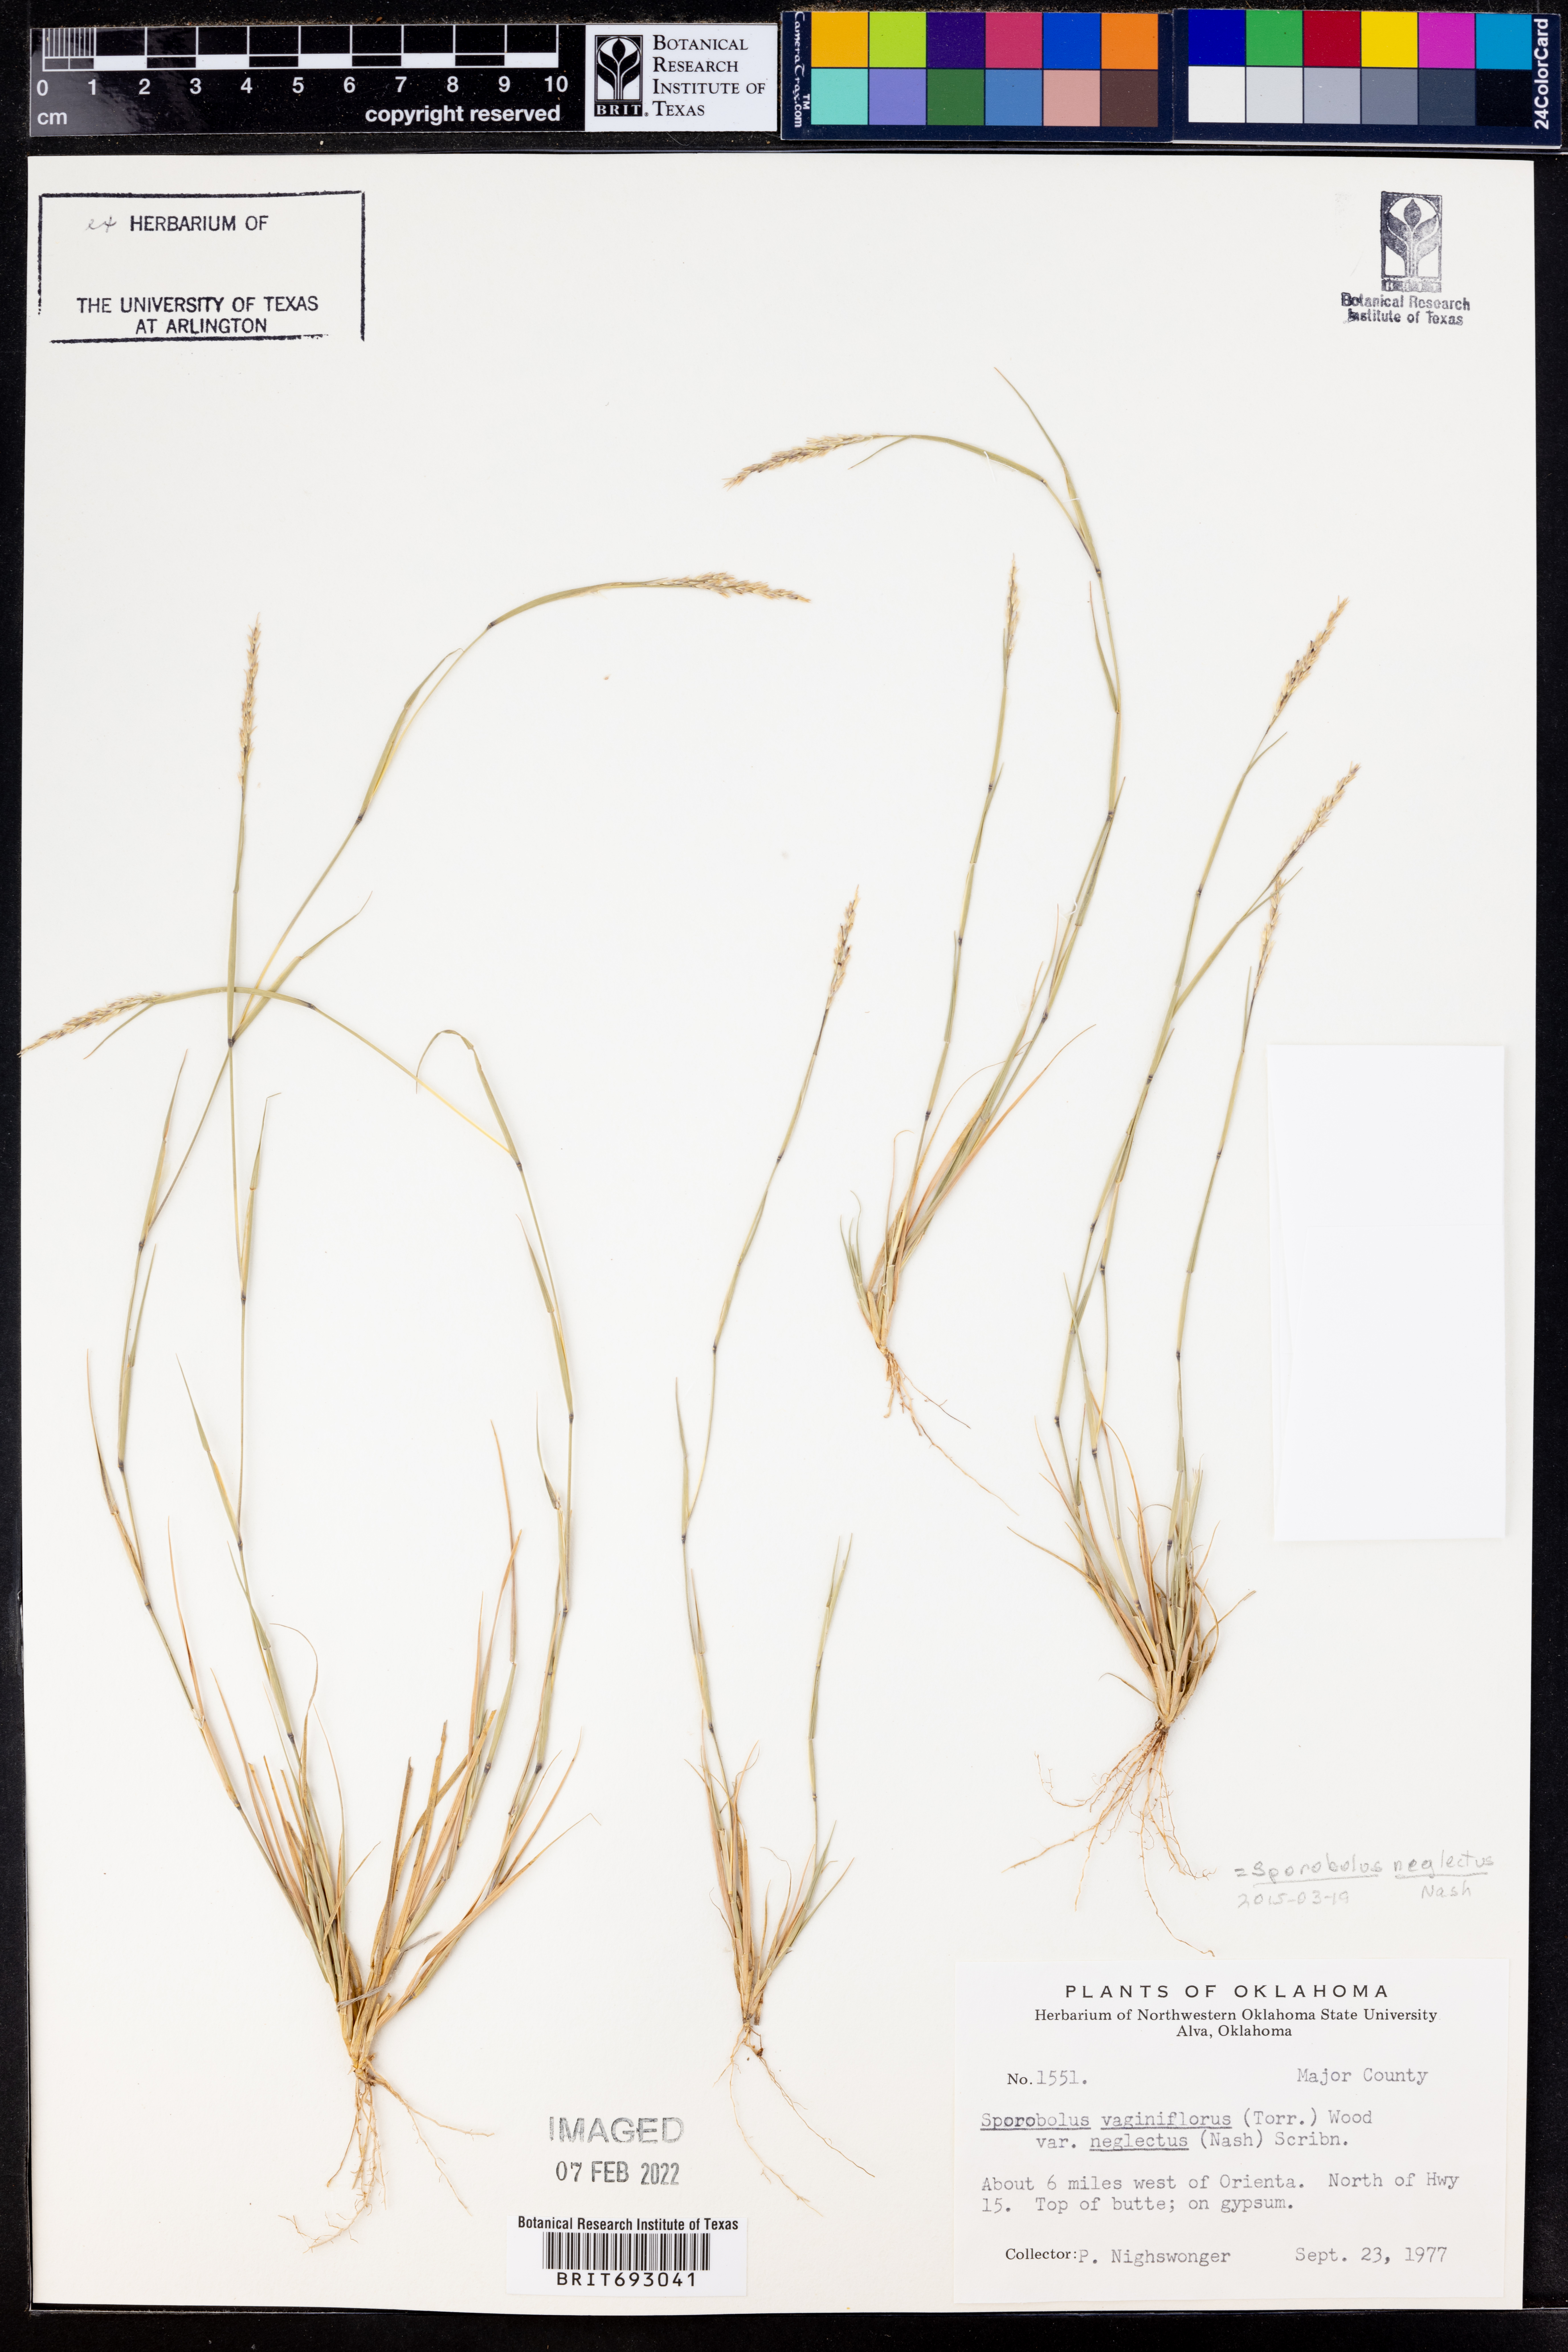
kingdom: Plantae
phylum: Tracheophyta
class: Liliopsida
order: Poales
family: Poaceae
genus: Sporobolus
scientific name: Sporobolus neglectus
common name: Annual dropseed
